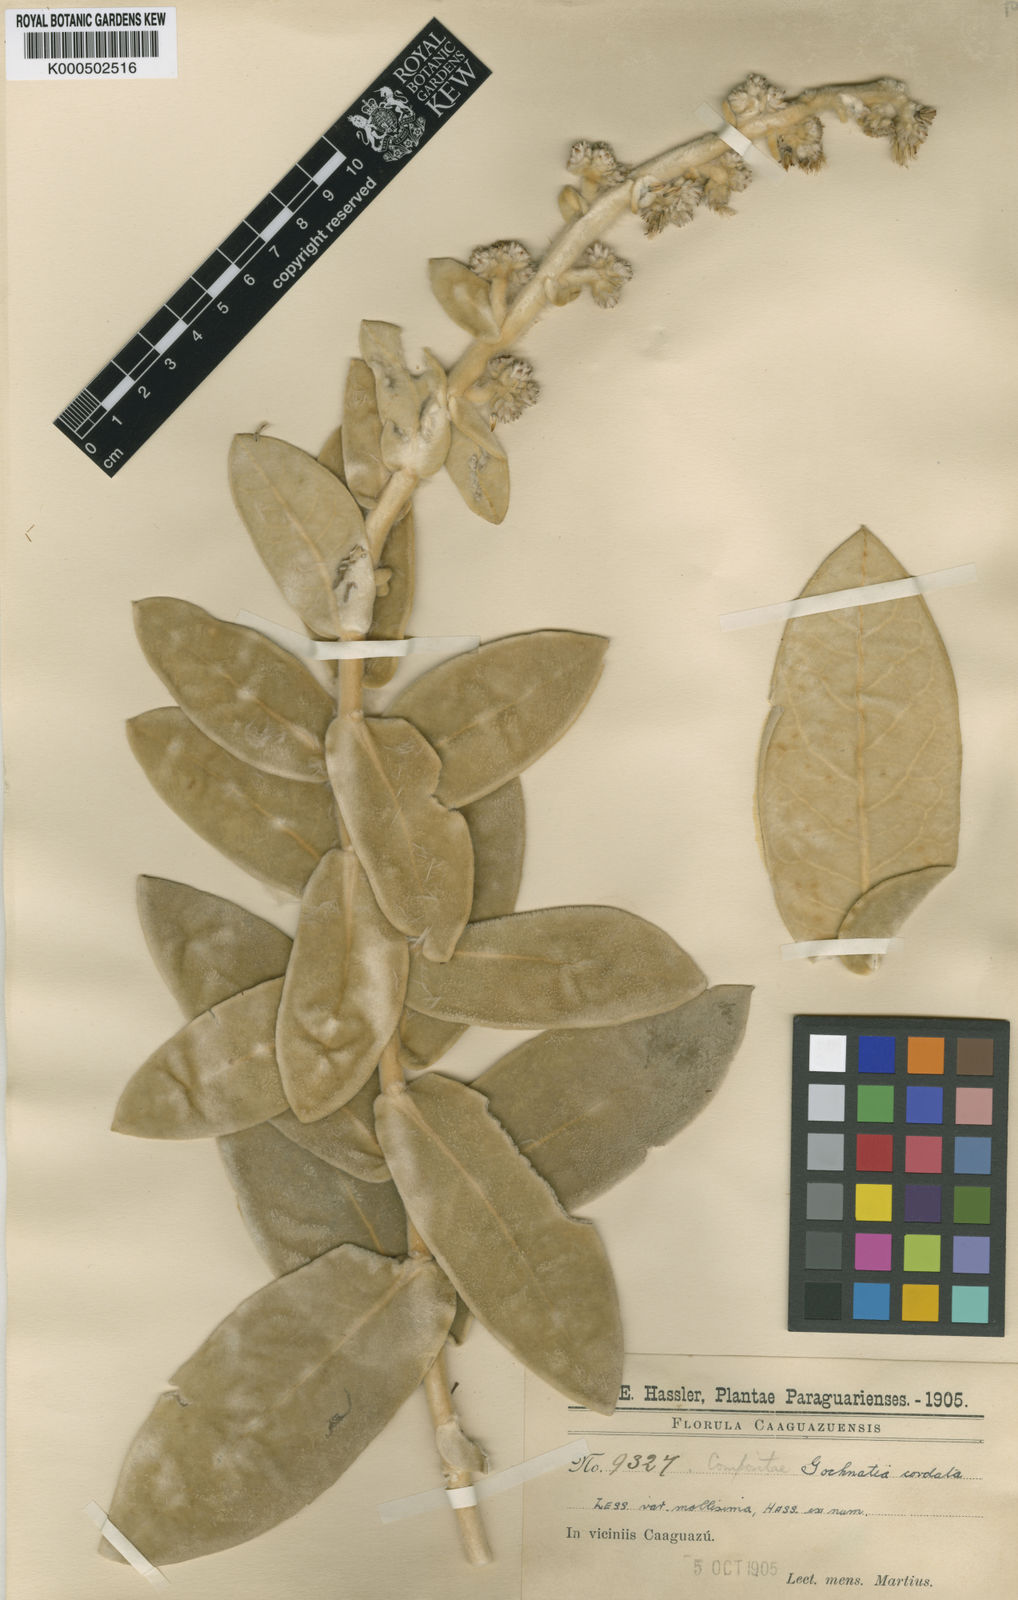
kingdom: Plantae
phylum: Tracheophyta
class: Magnoliopsida
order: Asterales
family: Asteraceae
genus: Moquiniastrum
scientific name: Moquiniastrum cordatum
